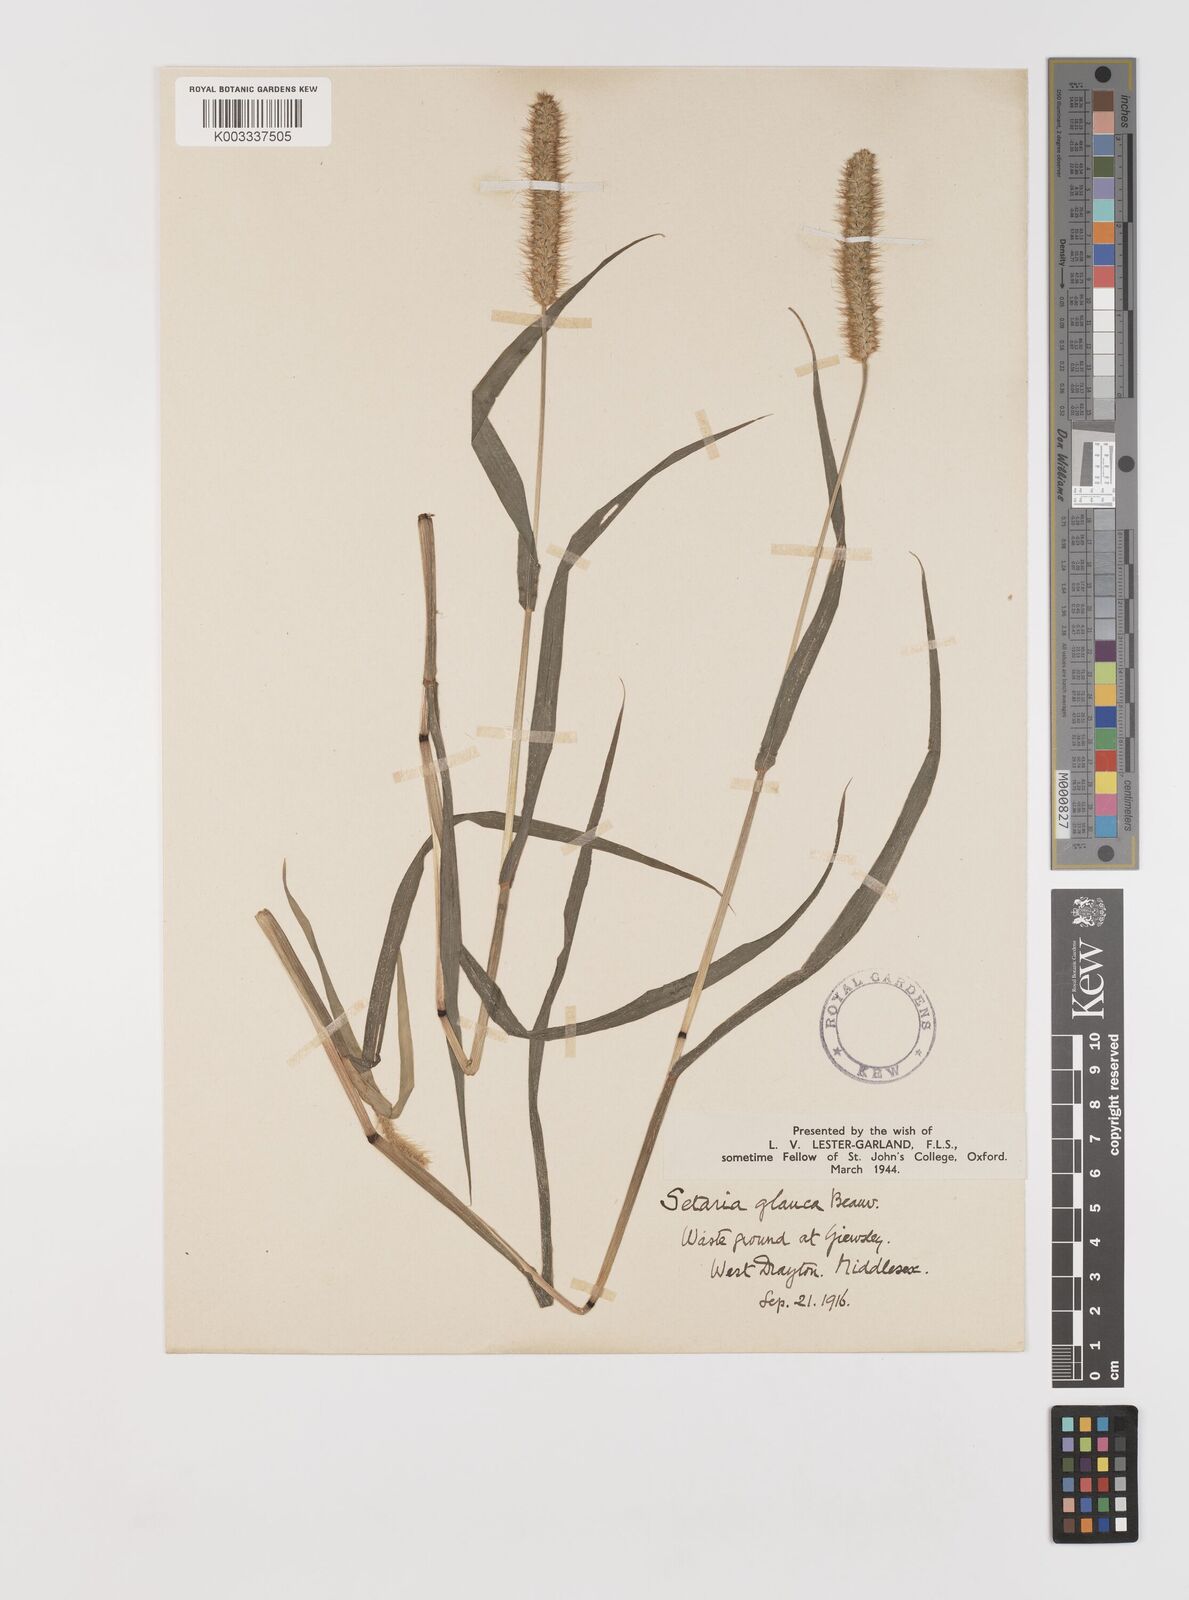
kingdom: Plantae
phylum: Tracheophyta
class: Liliopsida
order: Poales
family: Poaceae
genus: Setaria
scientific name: Setaria pumila
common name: Yellow bristle-grass
